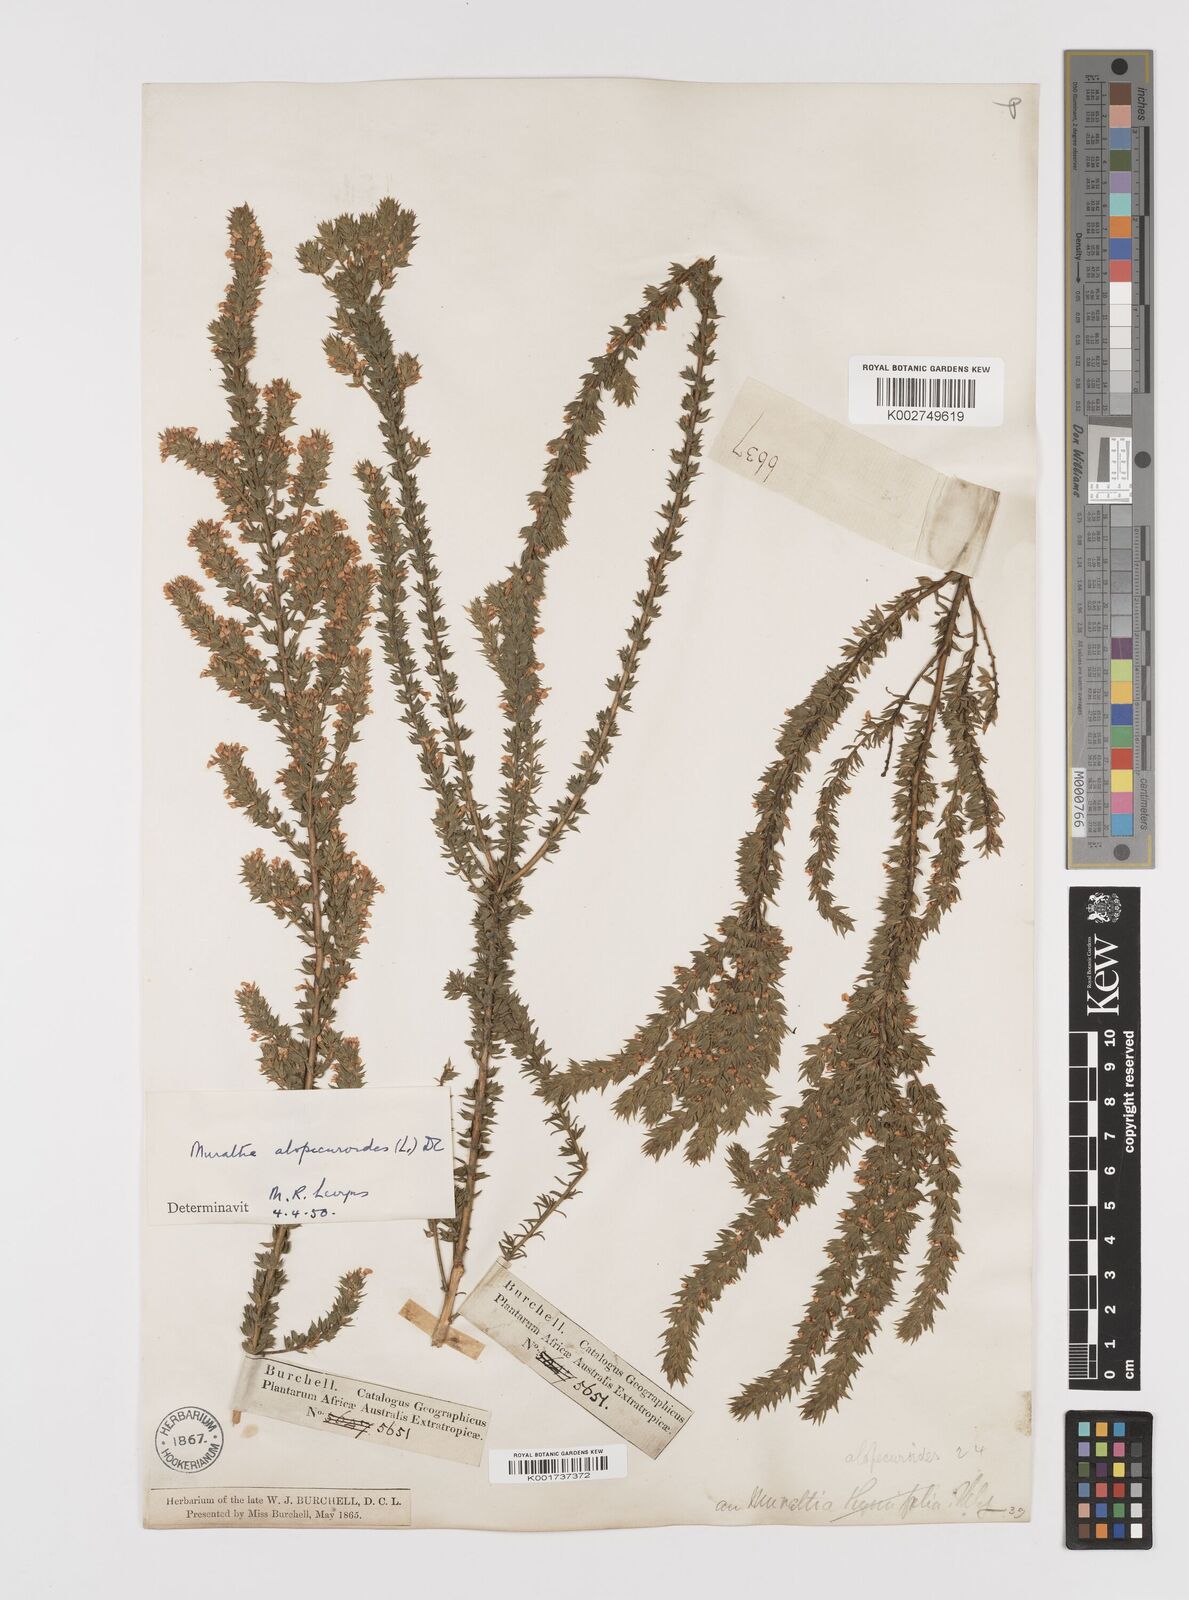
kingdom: Plantae
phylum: Tracheophyta
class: Magnoliopsida
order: Fabales
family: Polygalaceae
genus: Muraltia
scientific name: Muraltia alopecuroides
